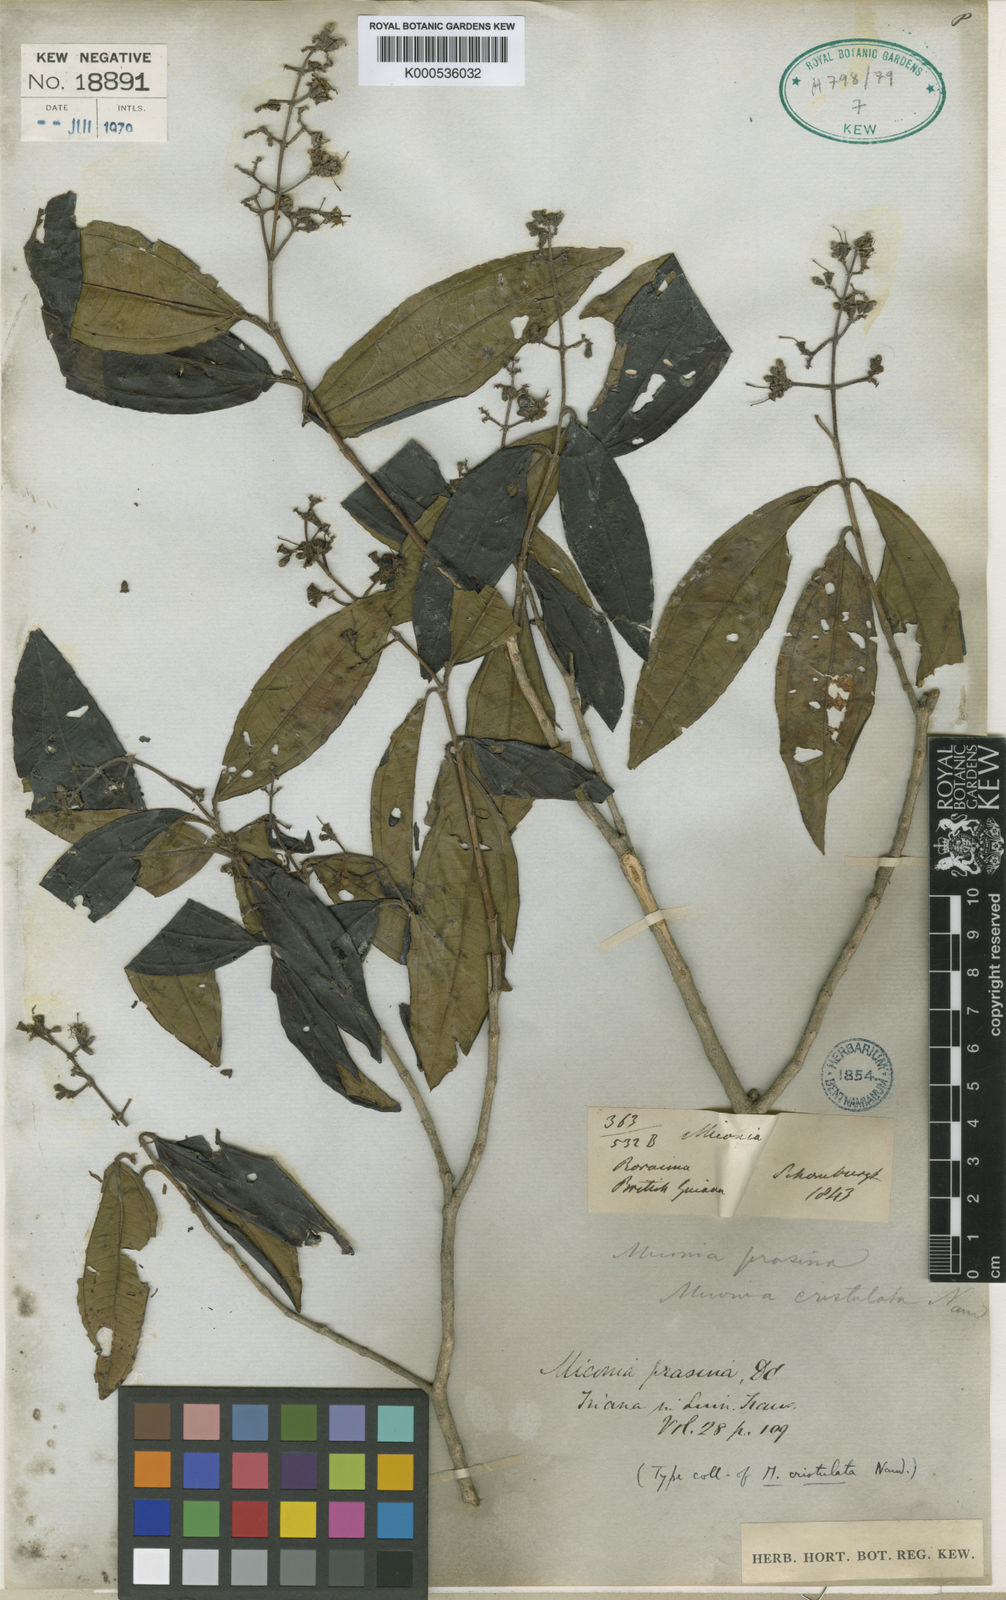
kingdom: Plantae
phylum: Tracheophyta
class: Magnoliopsida
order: Myrtales
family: Melastomataceae
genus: Miconia
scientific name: Miconia prasina
